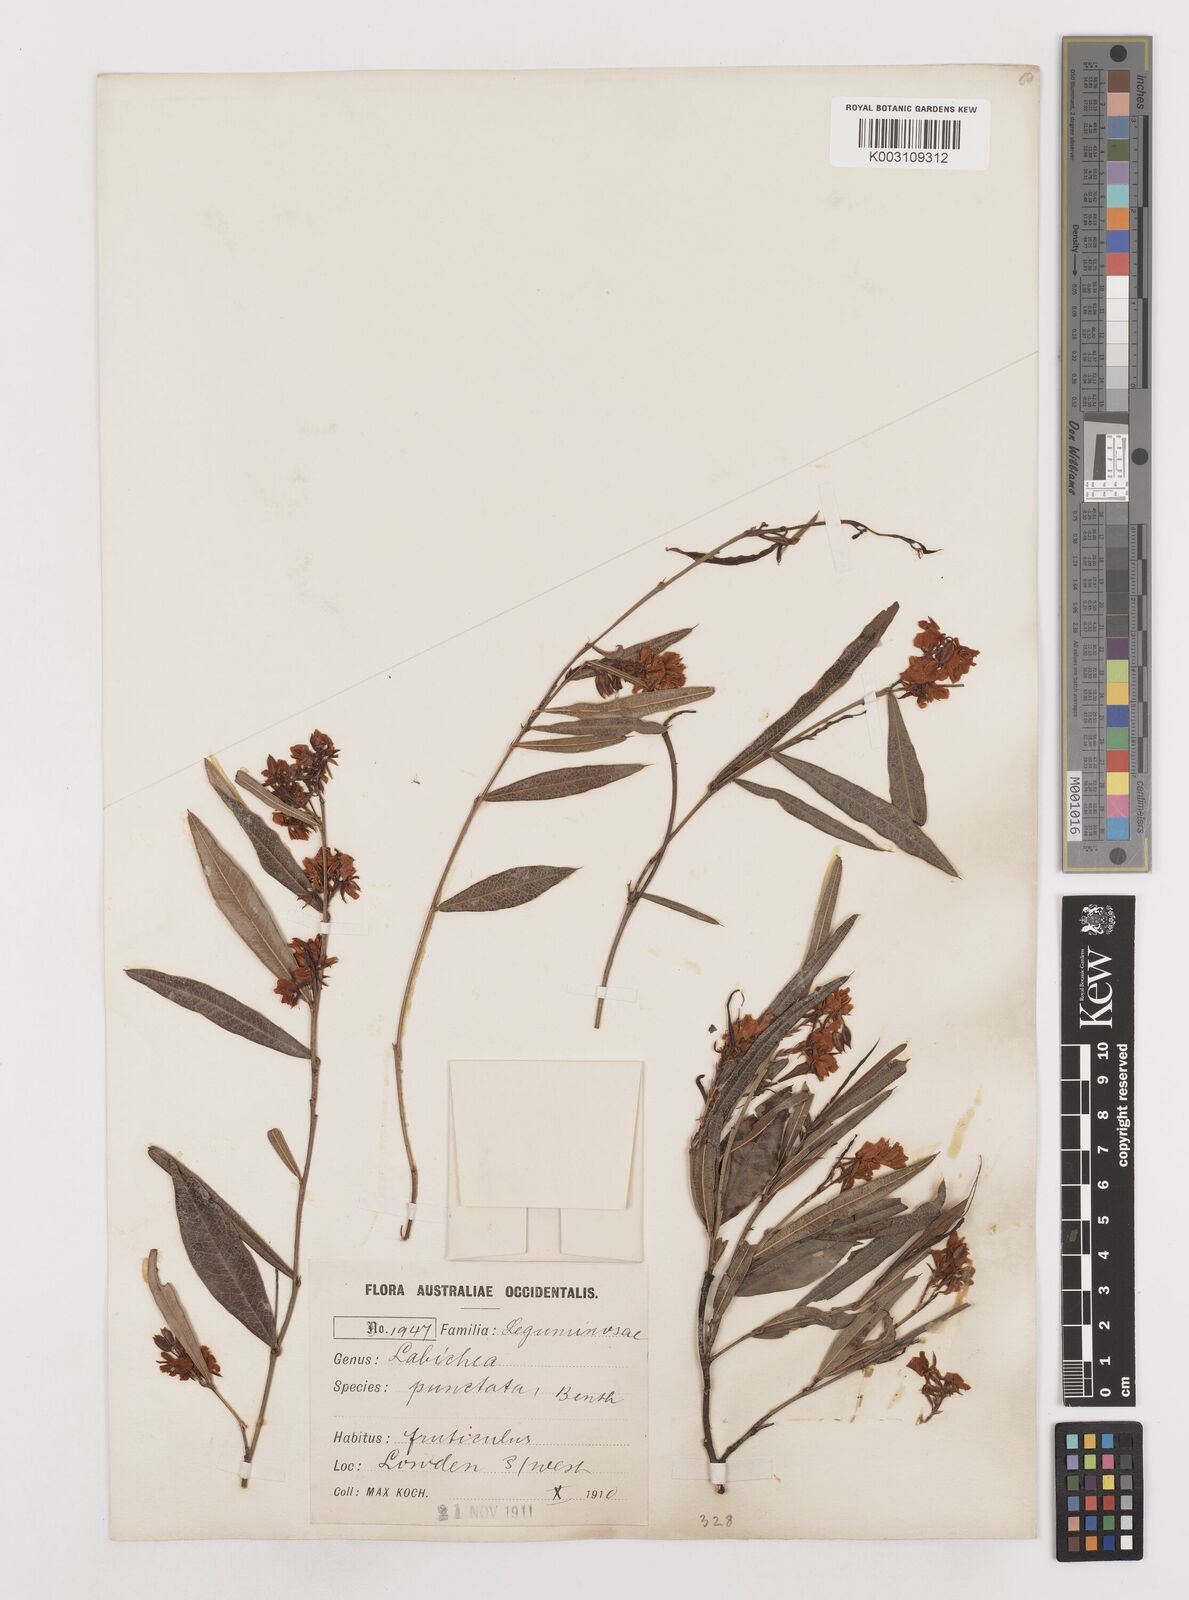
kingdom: Plantae
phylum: Tracheophyta
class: Magnoliopsida
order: Fabales
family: Fabaceae
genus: Labichea
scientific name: Labichea punctata
